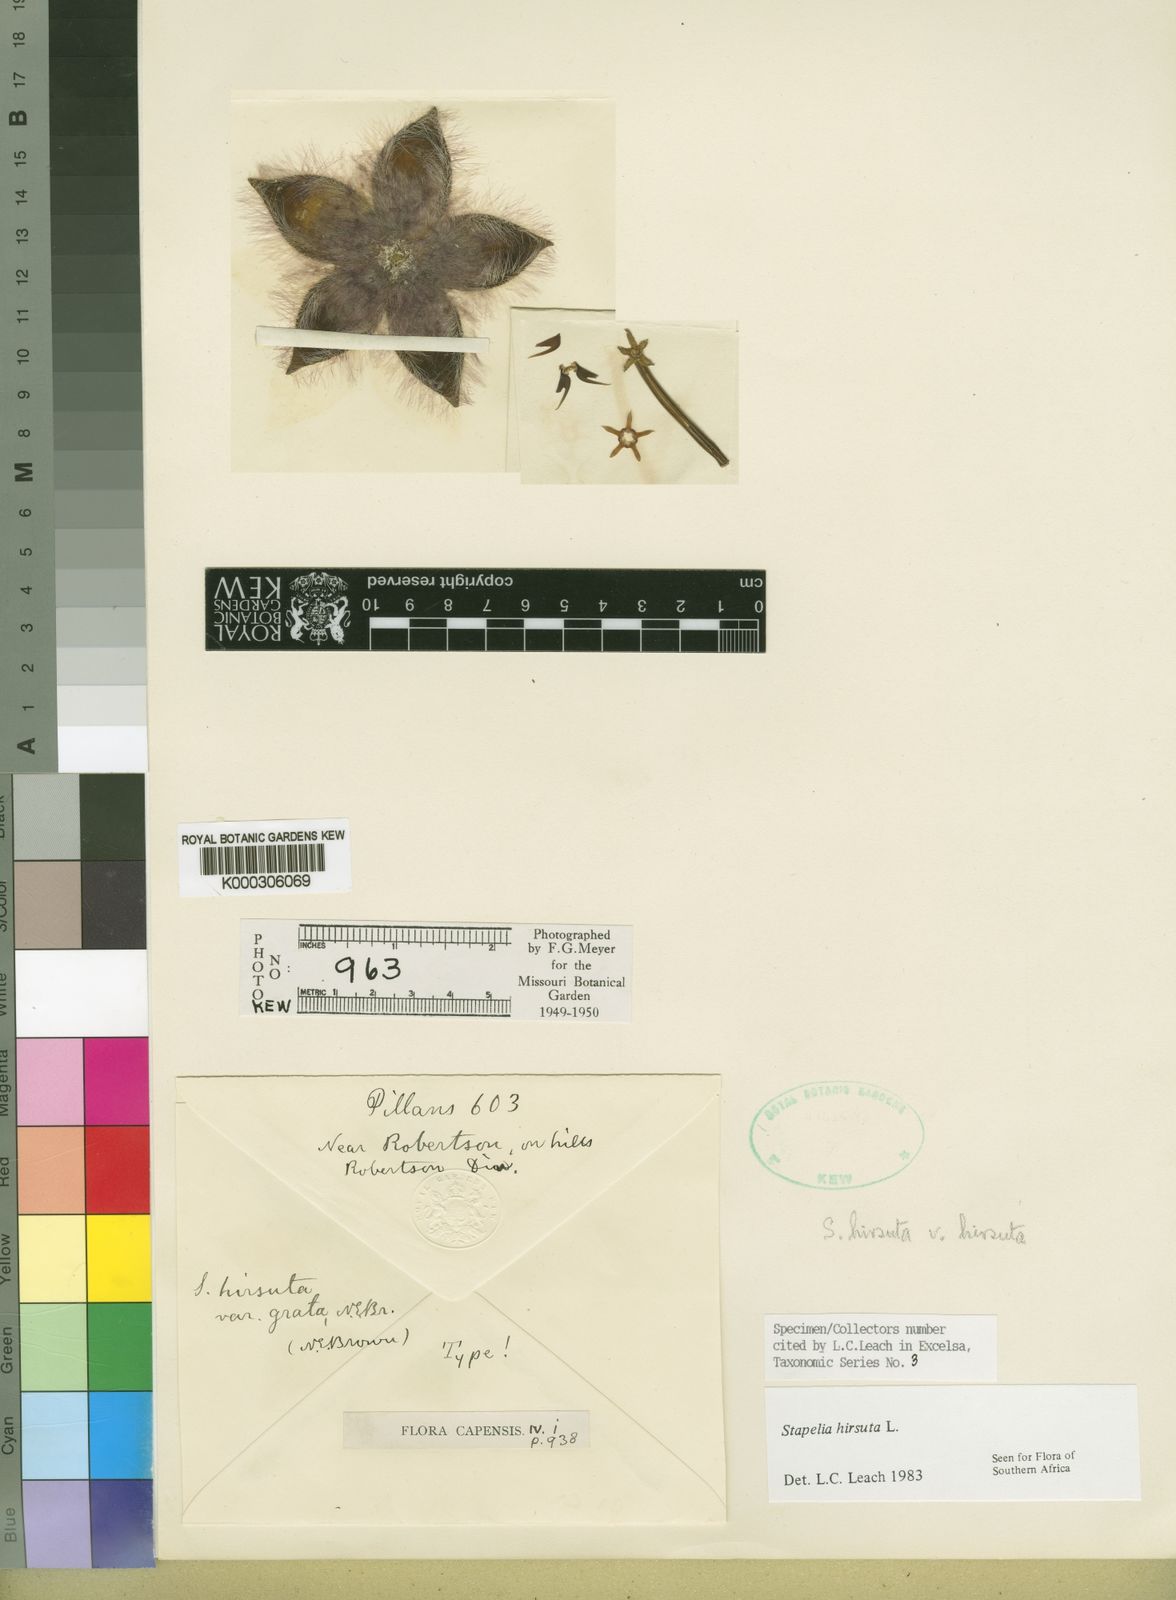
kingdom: Plantae
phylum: Tracheophyta
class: Magnoliopsida
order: Gentianales
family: Apocynaceae
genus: Ceropegia
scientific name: Ceropegia pulvinata
